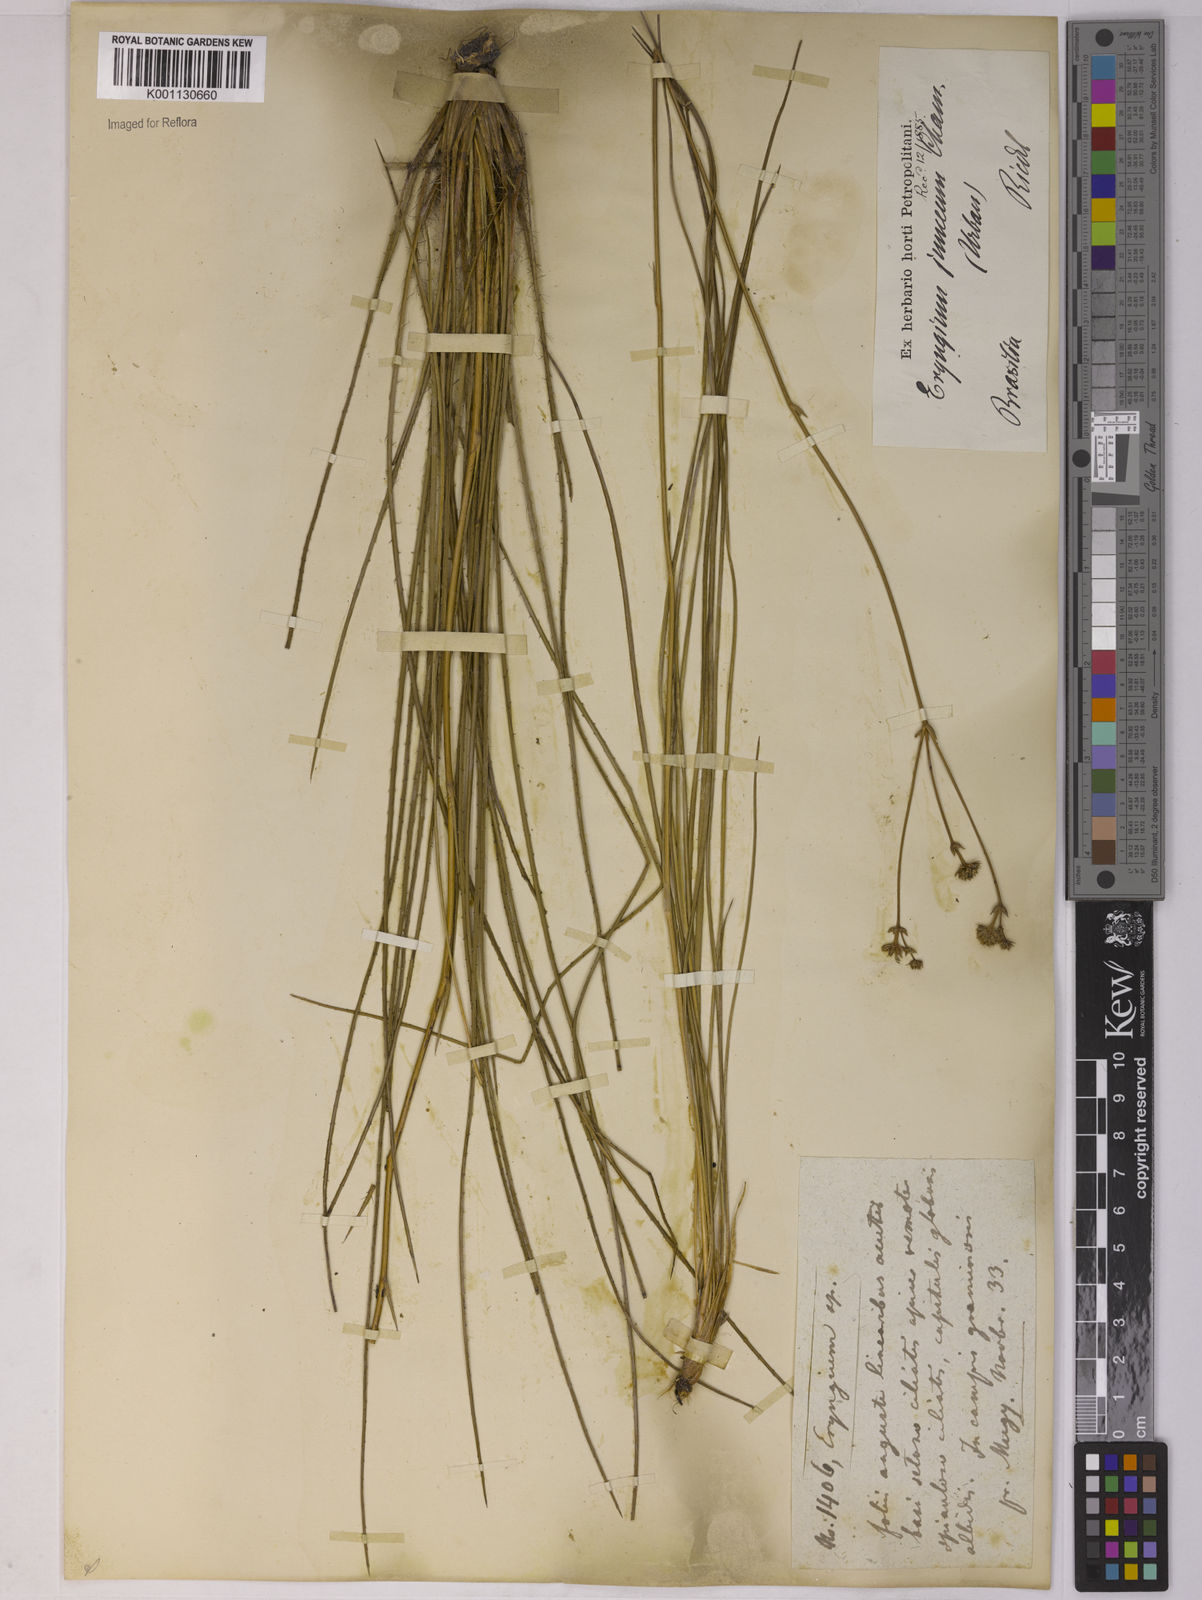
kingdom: Plantae
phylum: Tracheophyta
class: Magnoliopsida
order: Apiales
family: Apiaceae
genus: Eryngium
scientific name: Eryngium junceum
